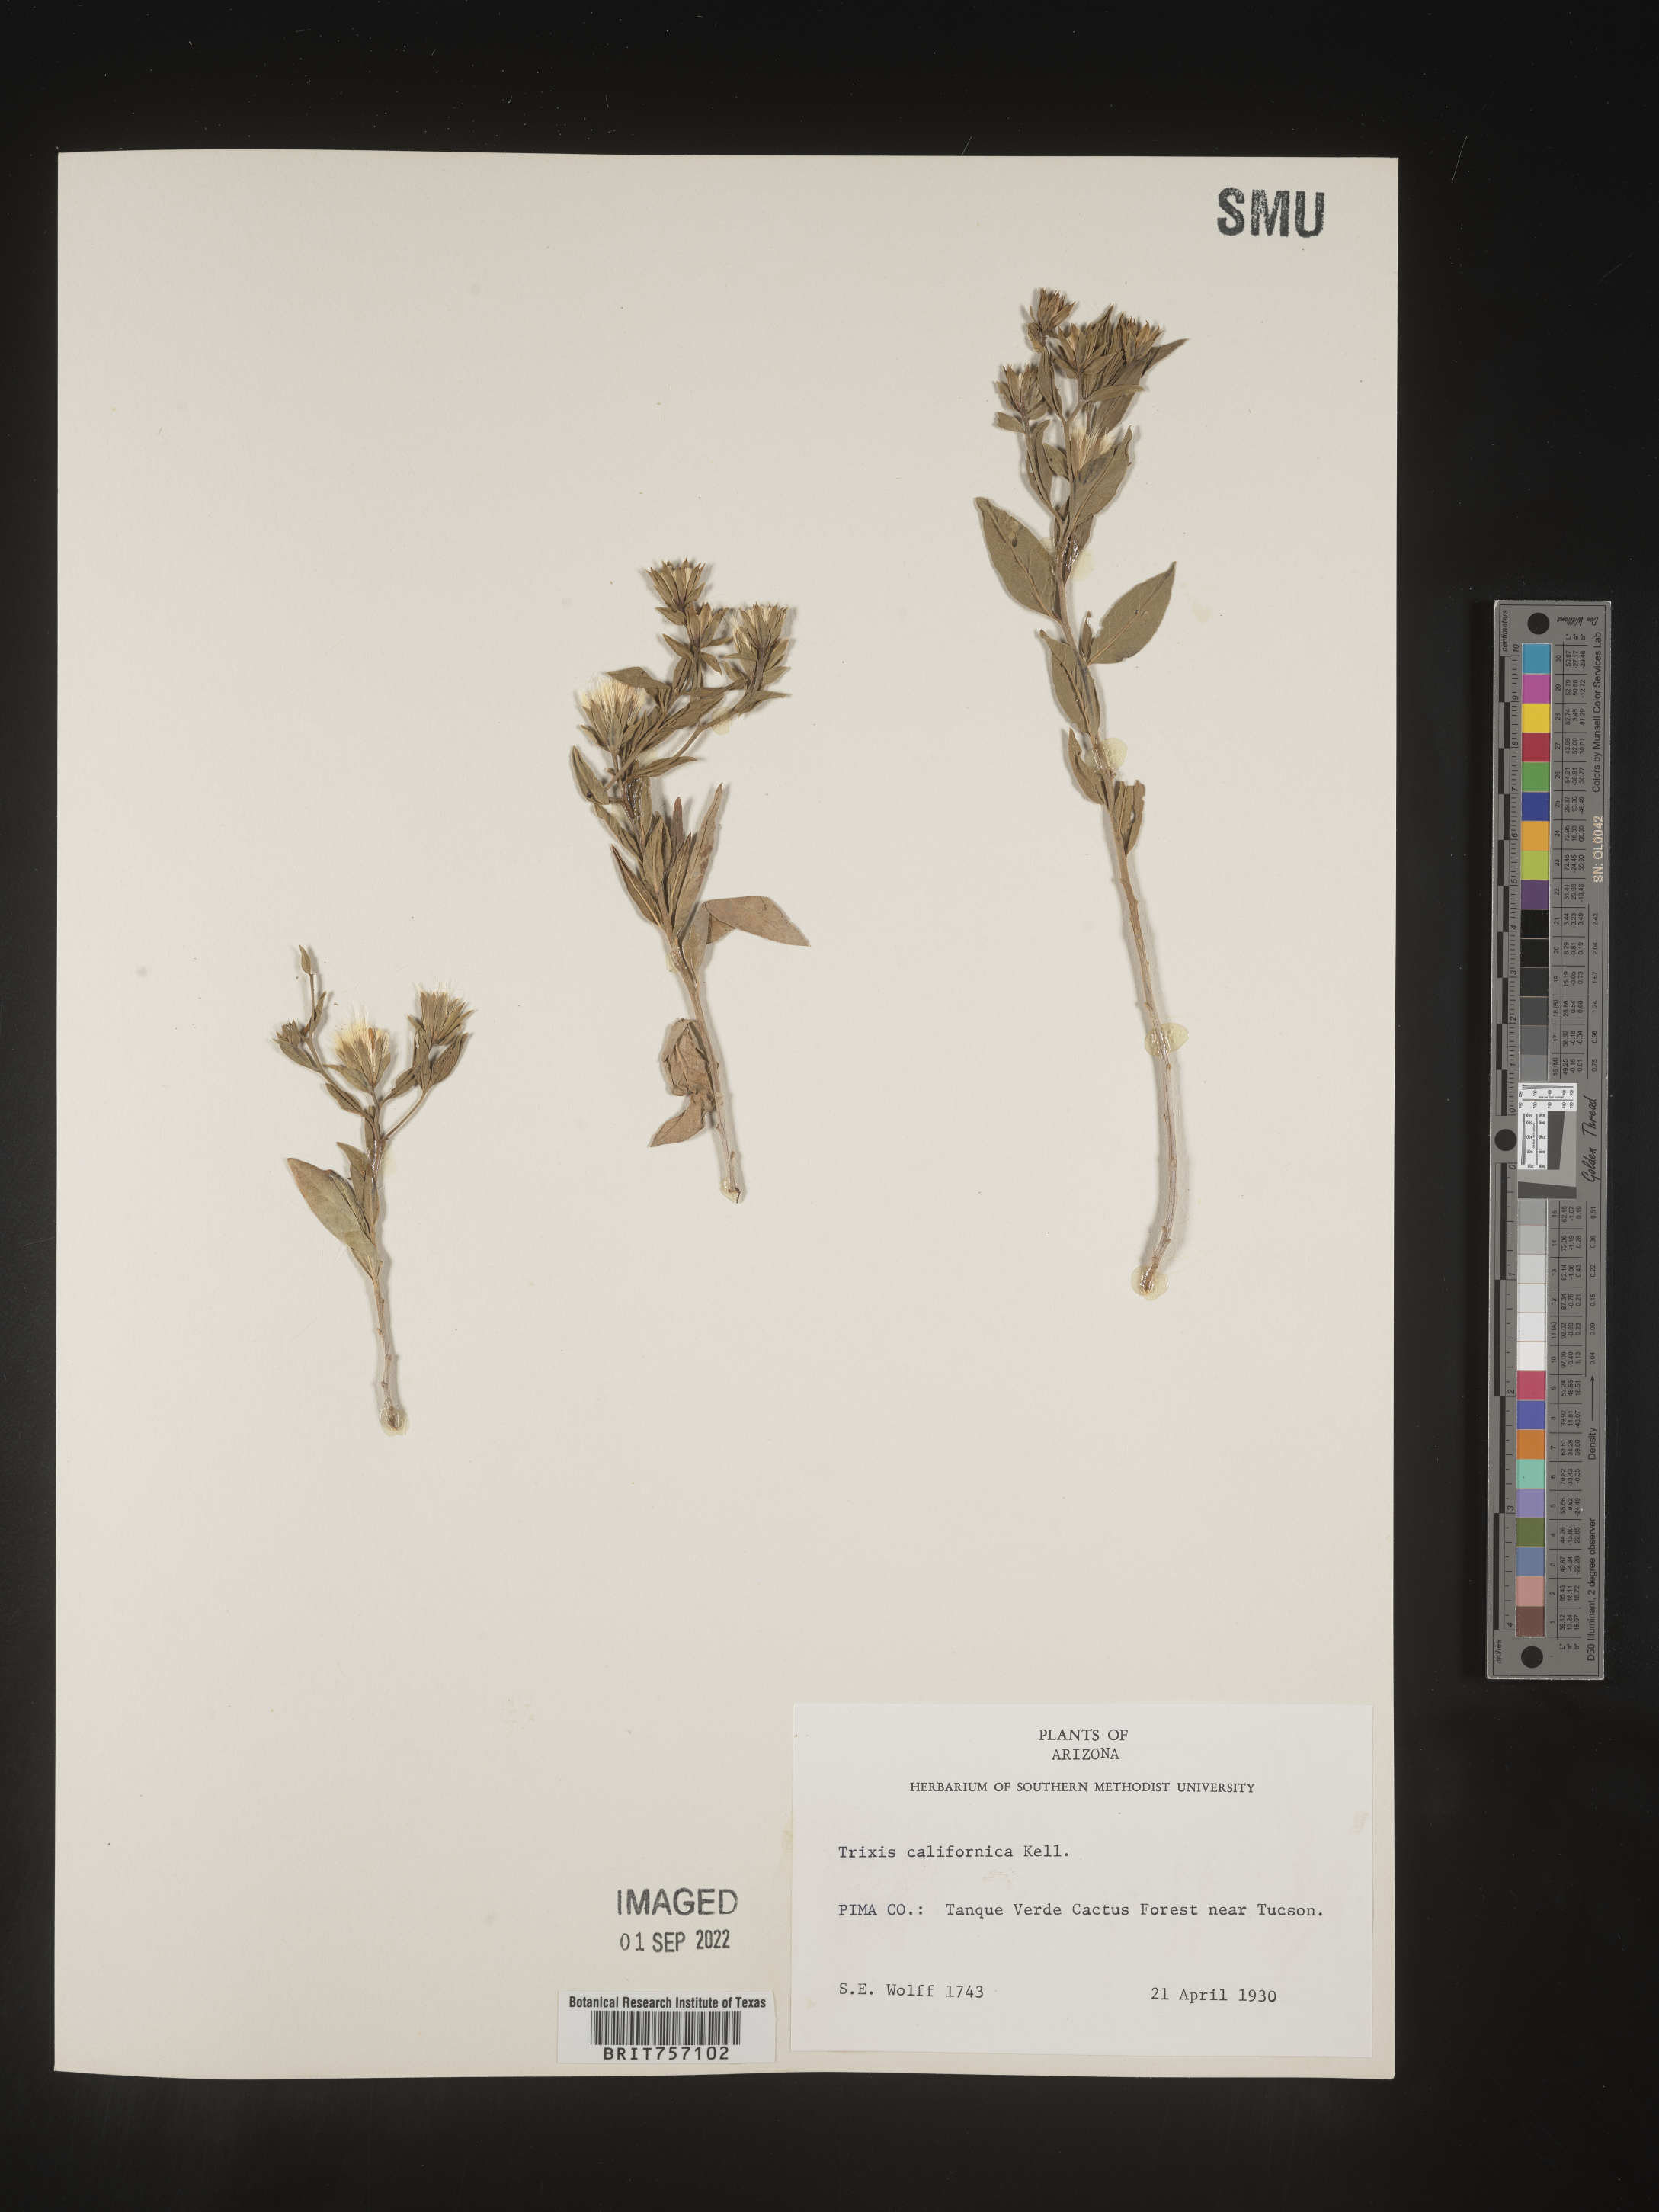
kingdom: Plantae
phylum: Tracheophyta
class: Magnoliopsida
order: Asterales
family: Asteraceae
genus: Trixis
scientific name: Trixis
